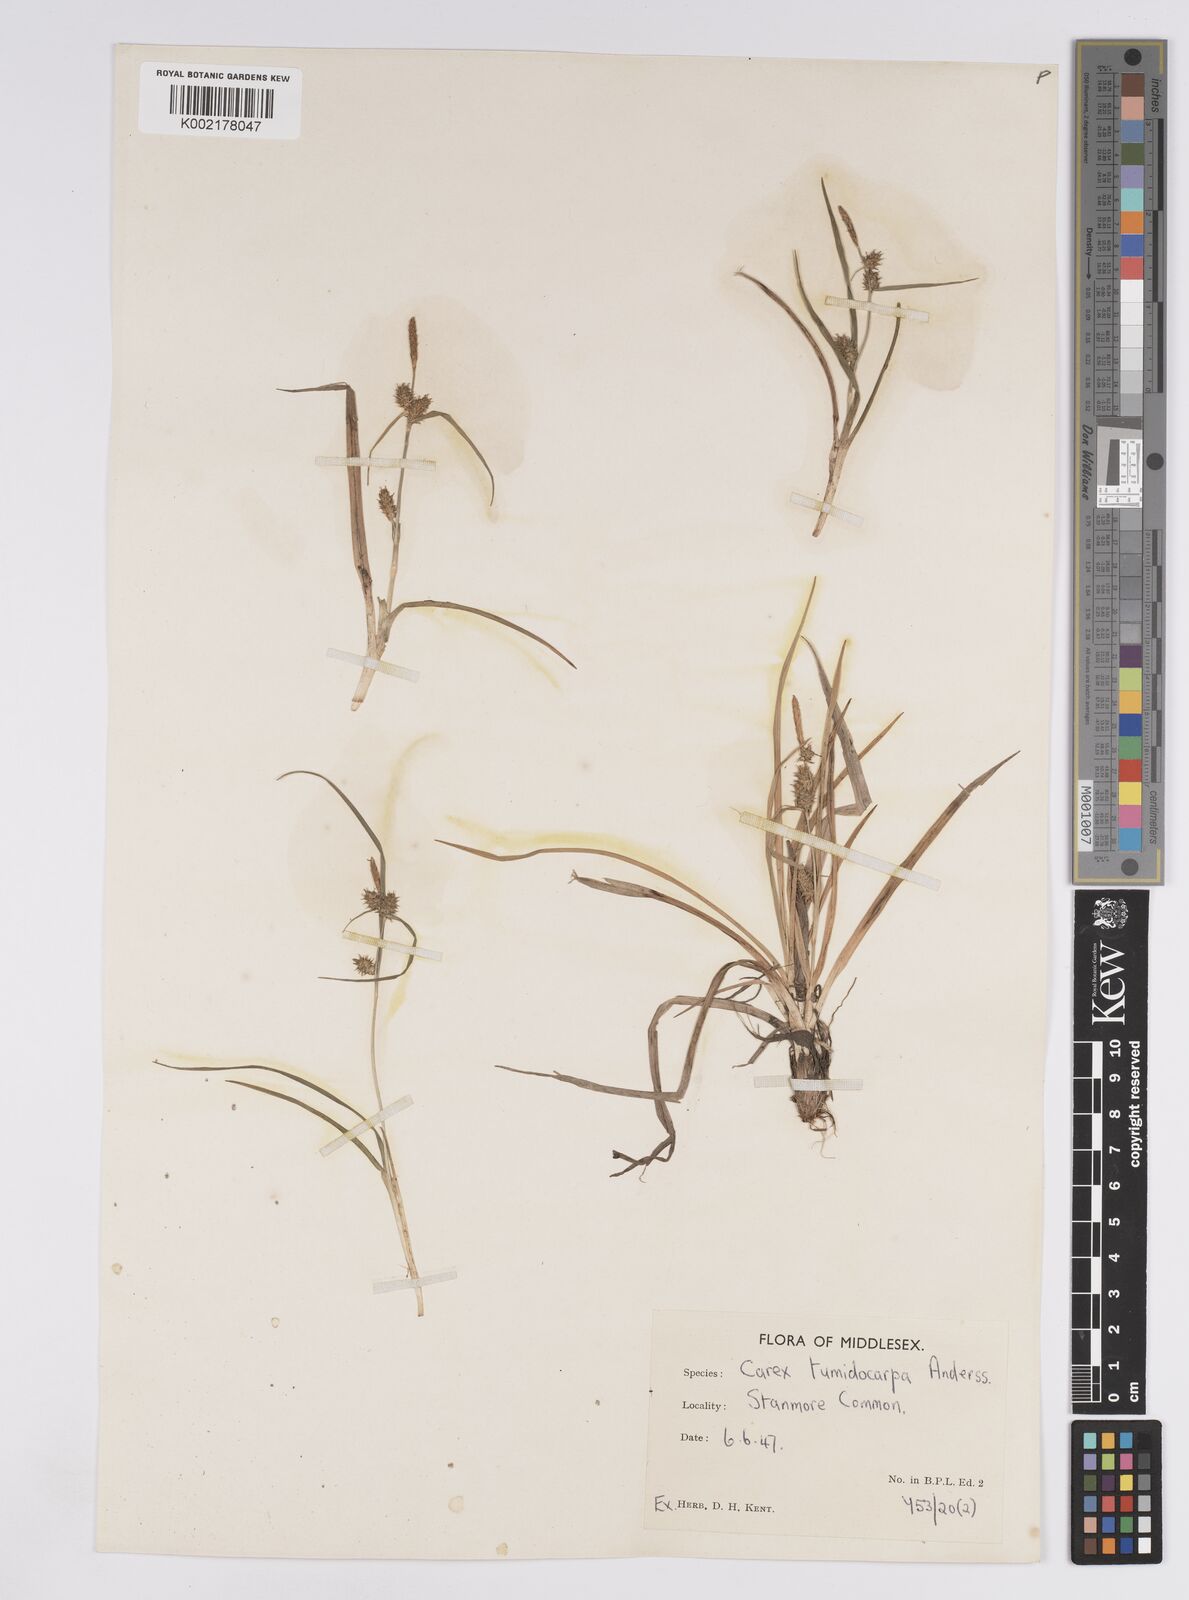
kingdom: Plantae
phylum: Tracheophyta
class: Liliopsida
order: Poales
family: Cyperaceae
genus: Carex
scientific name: Carex demissa
